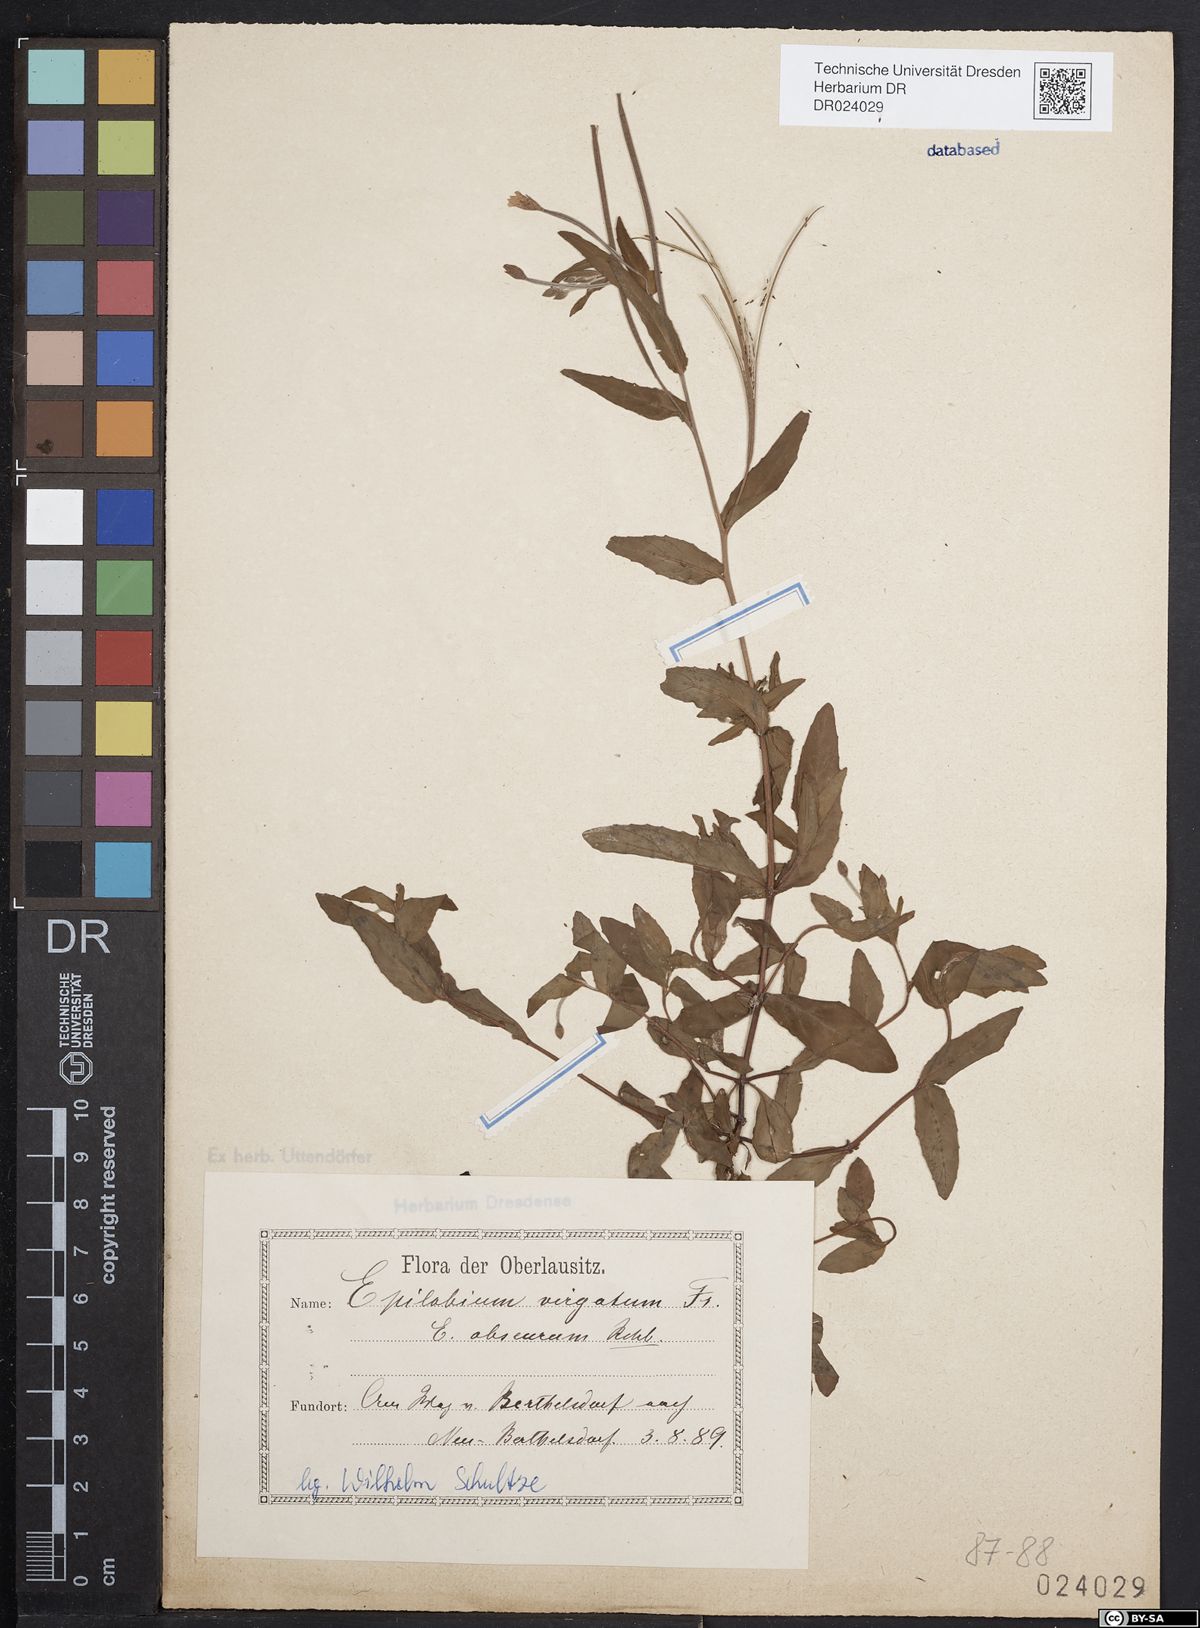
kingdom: Plantae
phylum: Tracheophyta
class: Magnoliopsida
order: Myrtales
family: Onagraceae
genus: Epilobium
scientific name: Epilobium obscurum
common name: Short-fruited willowherb
